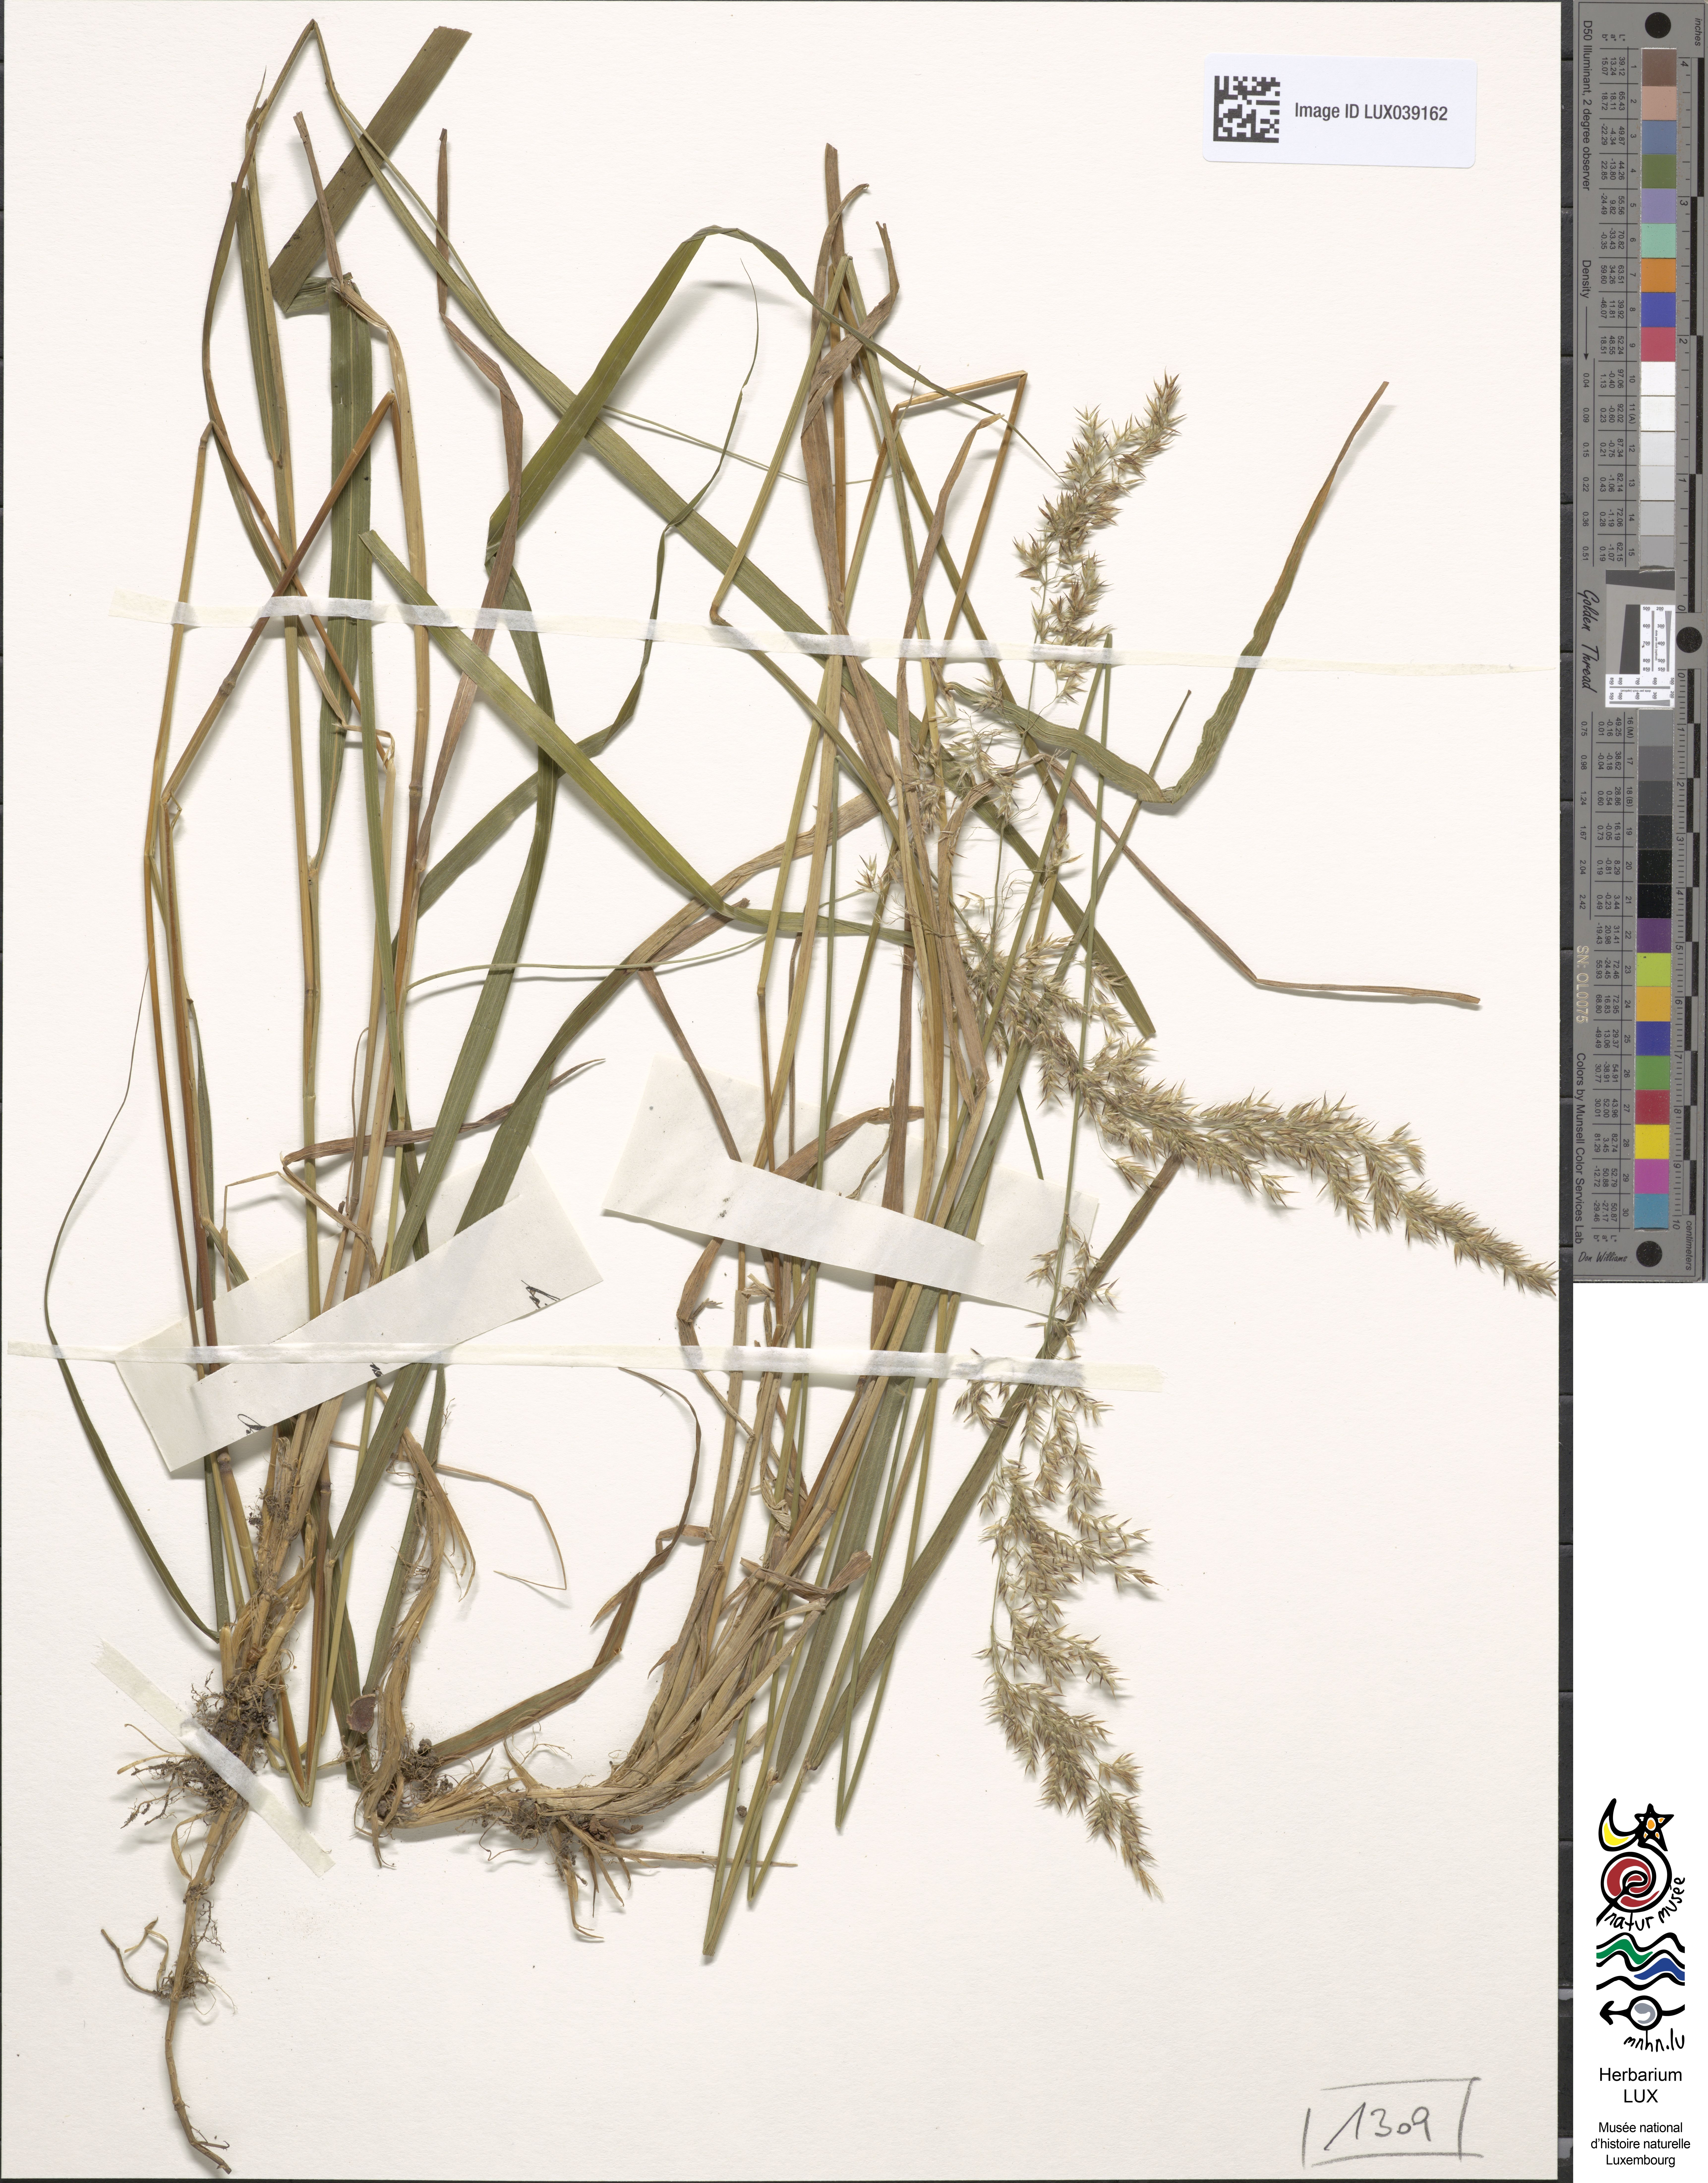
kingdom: Plantae
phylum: Tracheophyta
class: Liliopsida
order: Poales
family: Poaceae
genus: Calamagrostis
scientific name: Calamagrostis villosa
